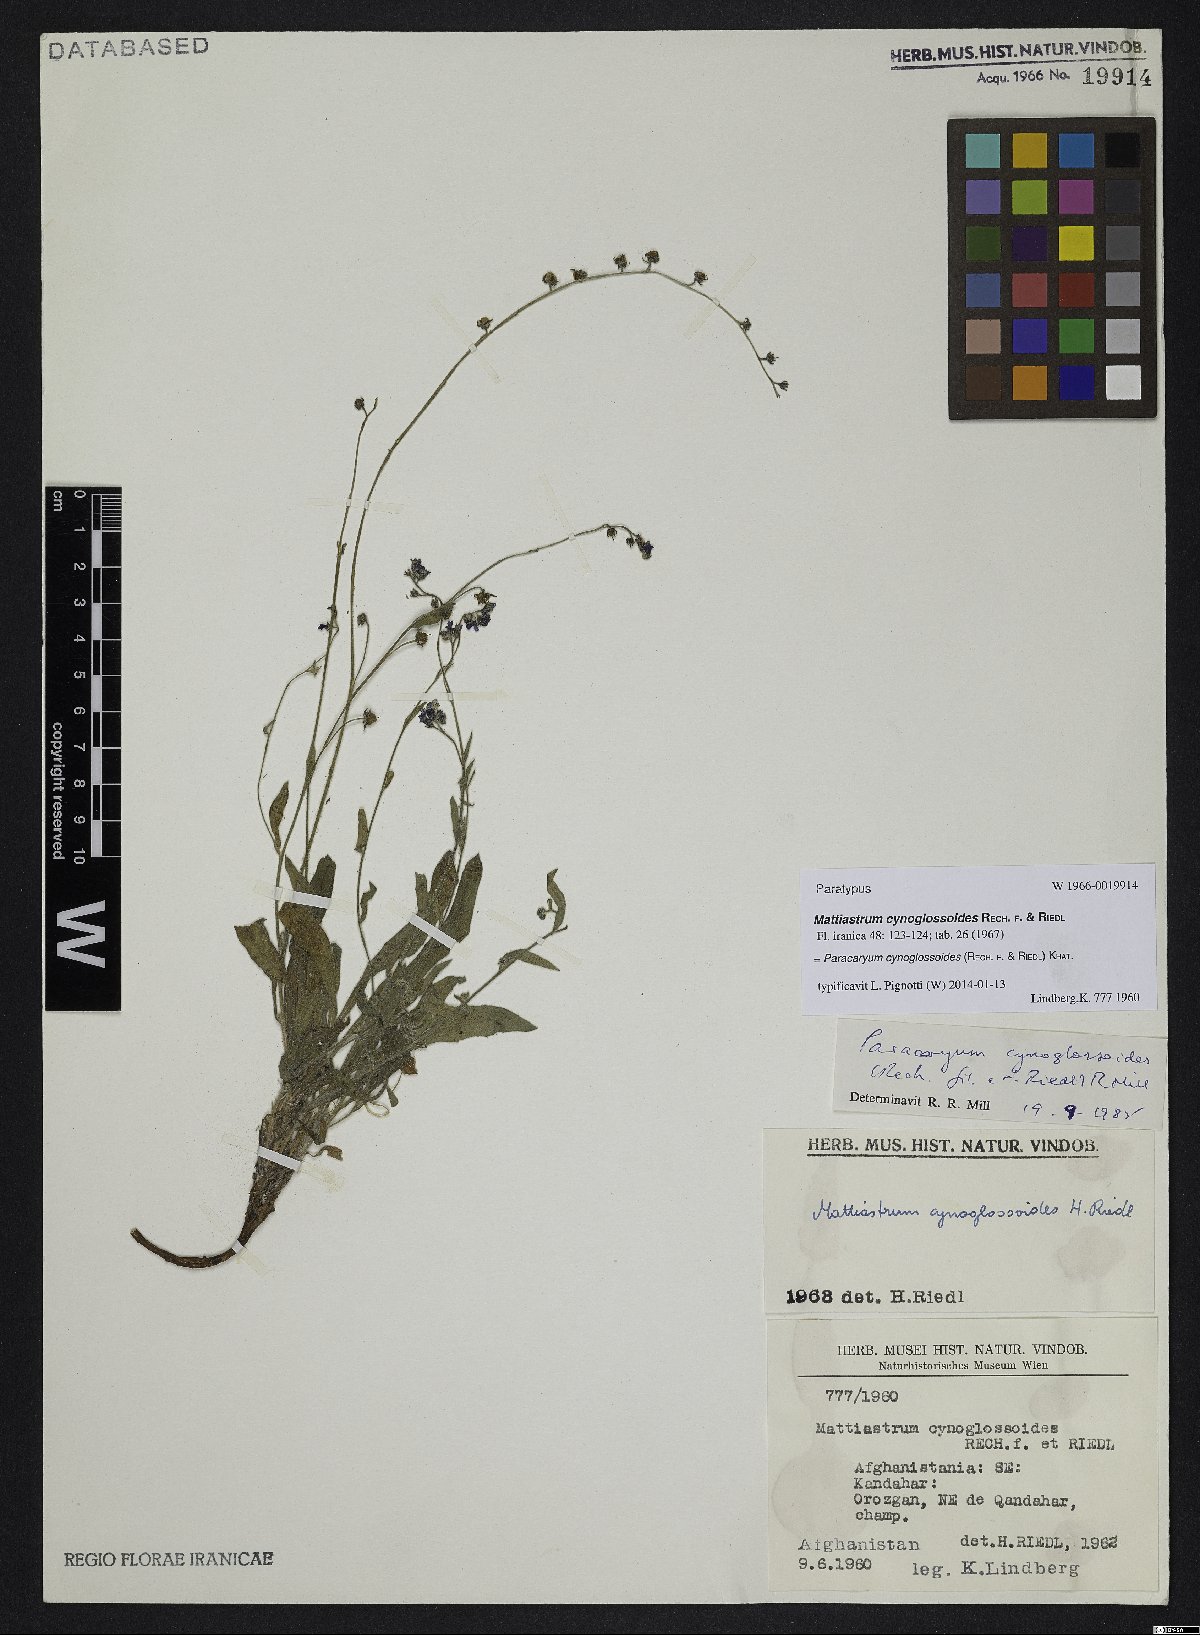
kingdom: Plantae
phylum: Tracheophyta
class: Magnoliopsida
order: Boraginales
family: Boraginaceae
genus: Paracaryum
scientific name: Paracaryum cynoglossoides
